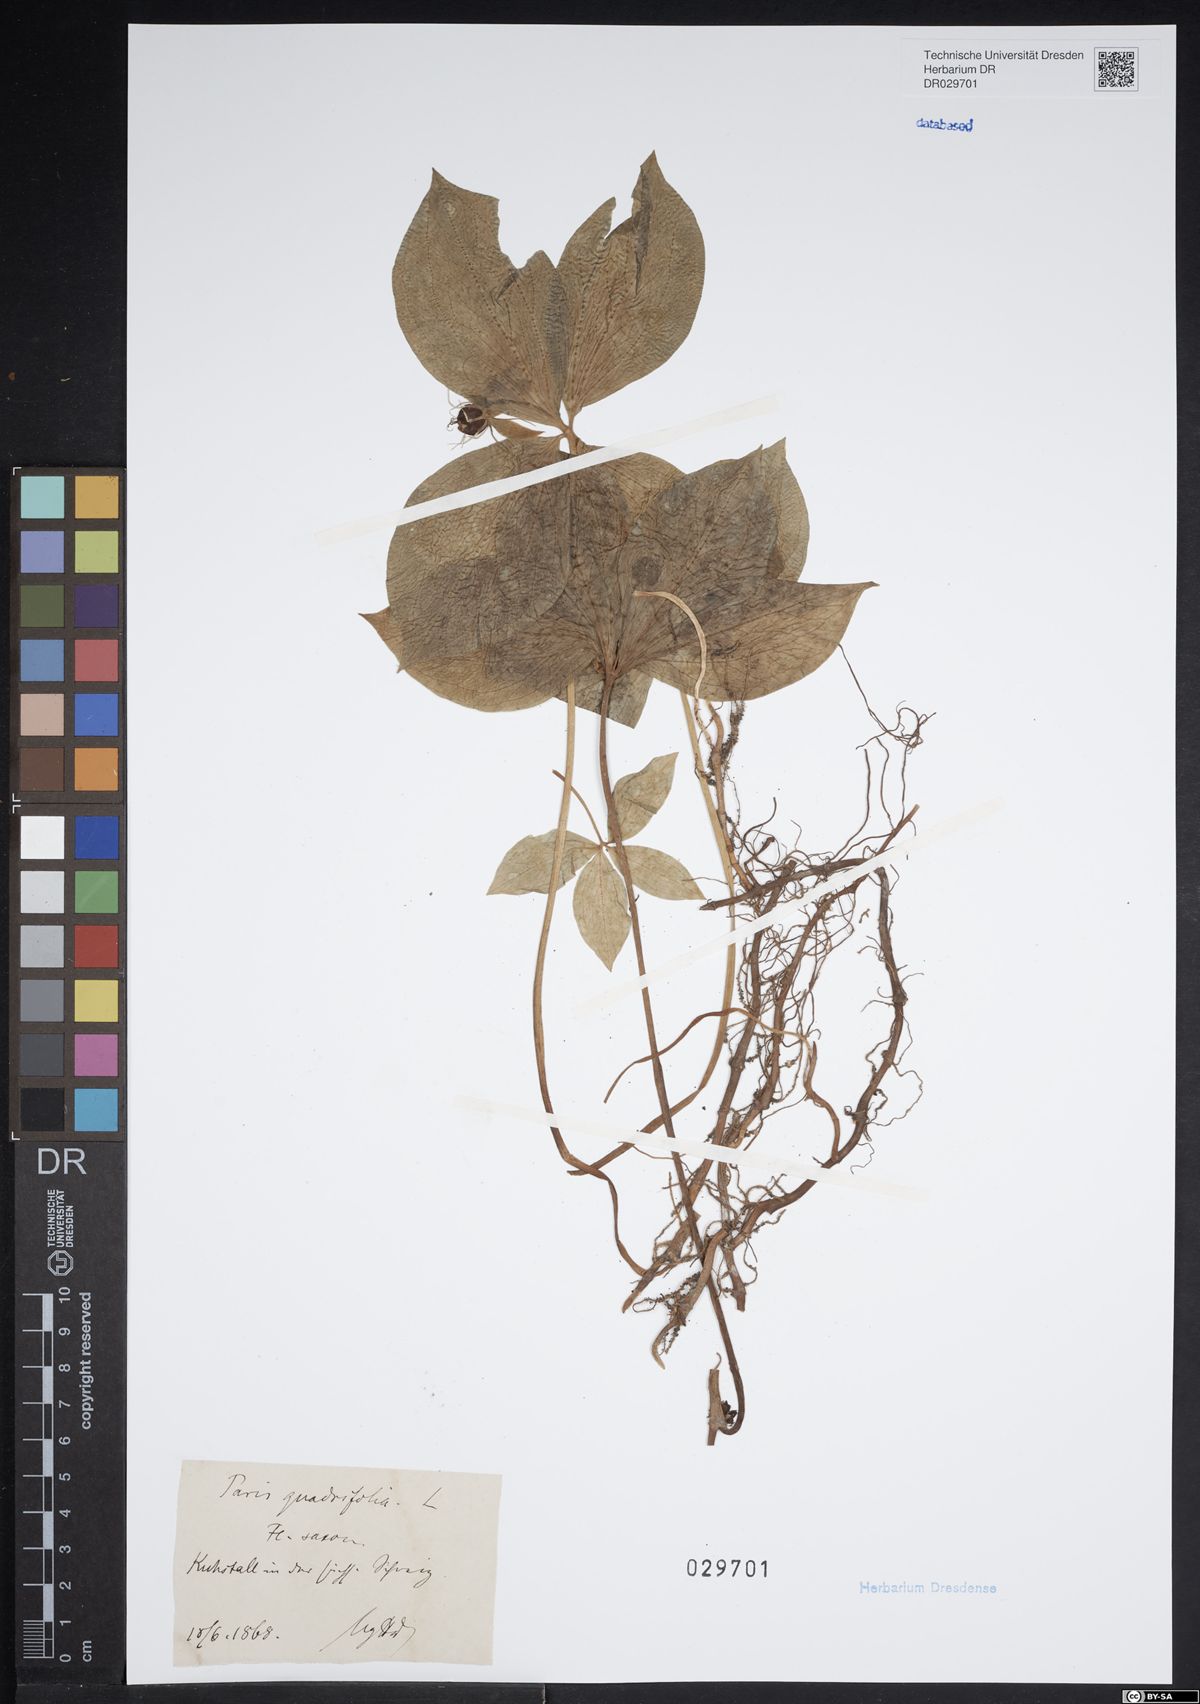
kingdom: Plantae
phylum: Tracheophyta
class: Liliopsida
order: Liliales
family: Melanthiaceae
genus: Paris
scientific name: Paris quadrifolia
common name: Herb-paris
